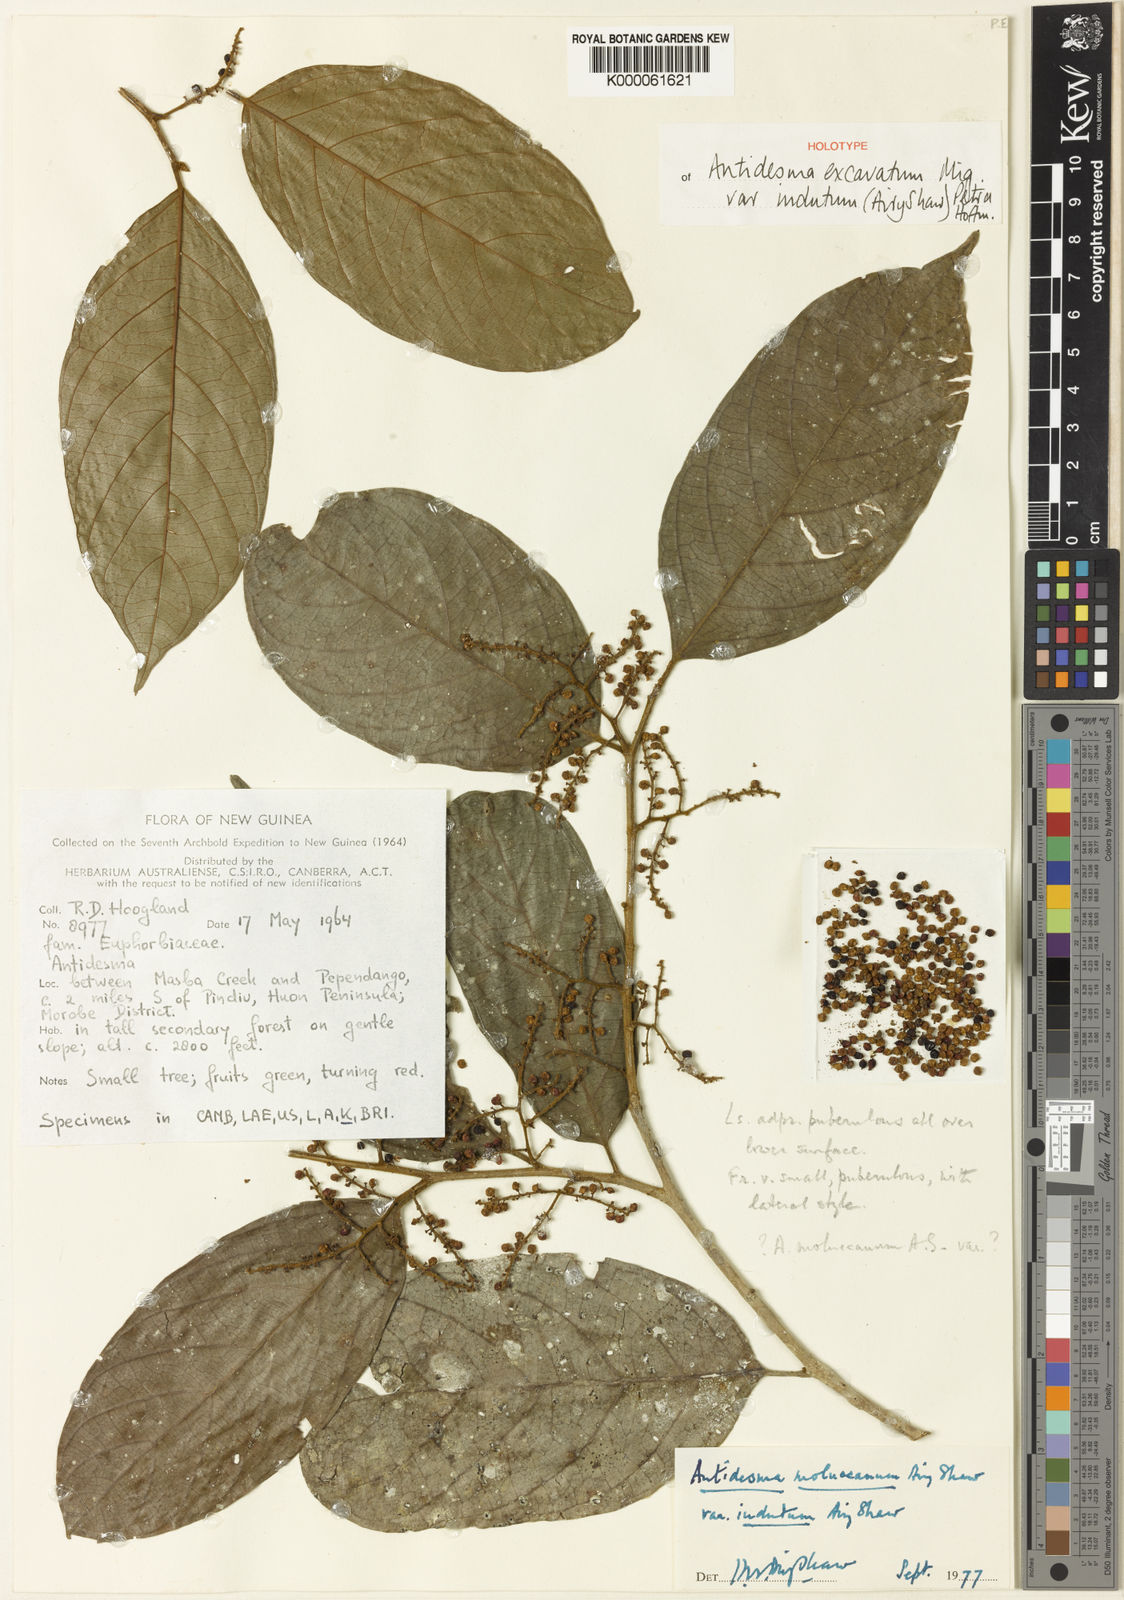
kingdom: Plantae
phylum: Tracheophyta
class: Magnoliopsida
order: Malpighiales
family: Phyllanthaceae
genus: Antidesma
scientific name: Antidesma excavatum
